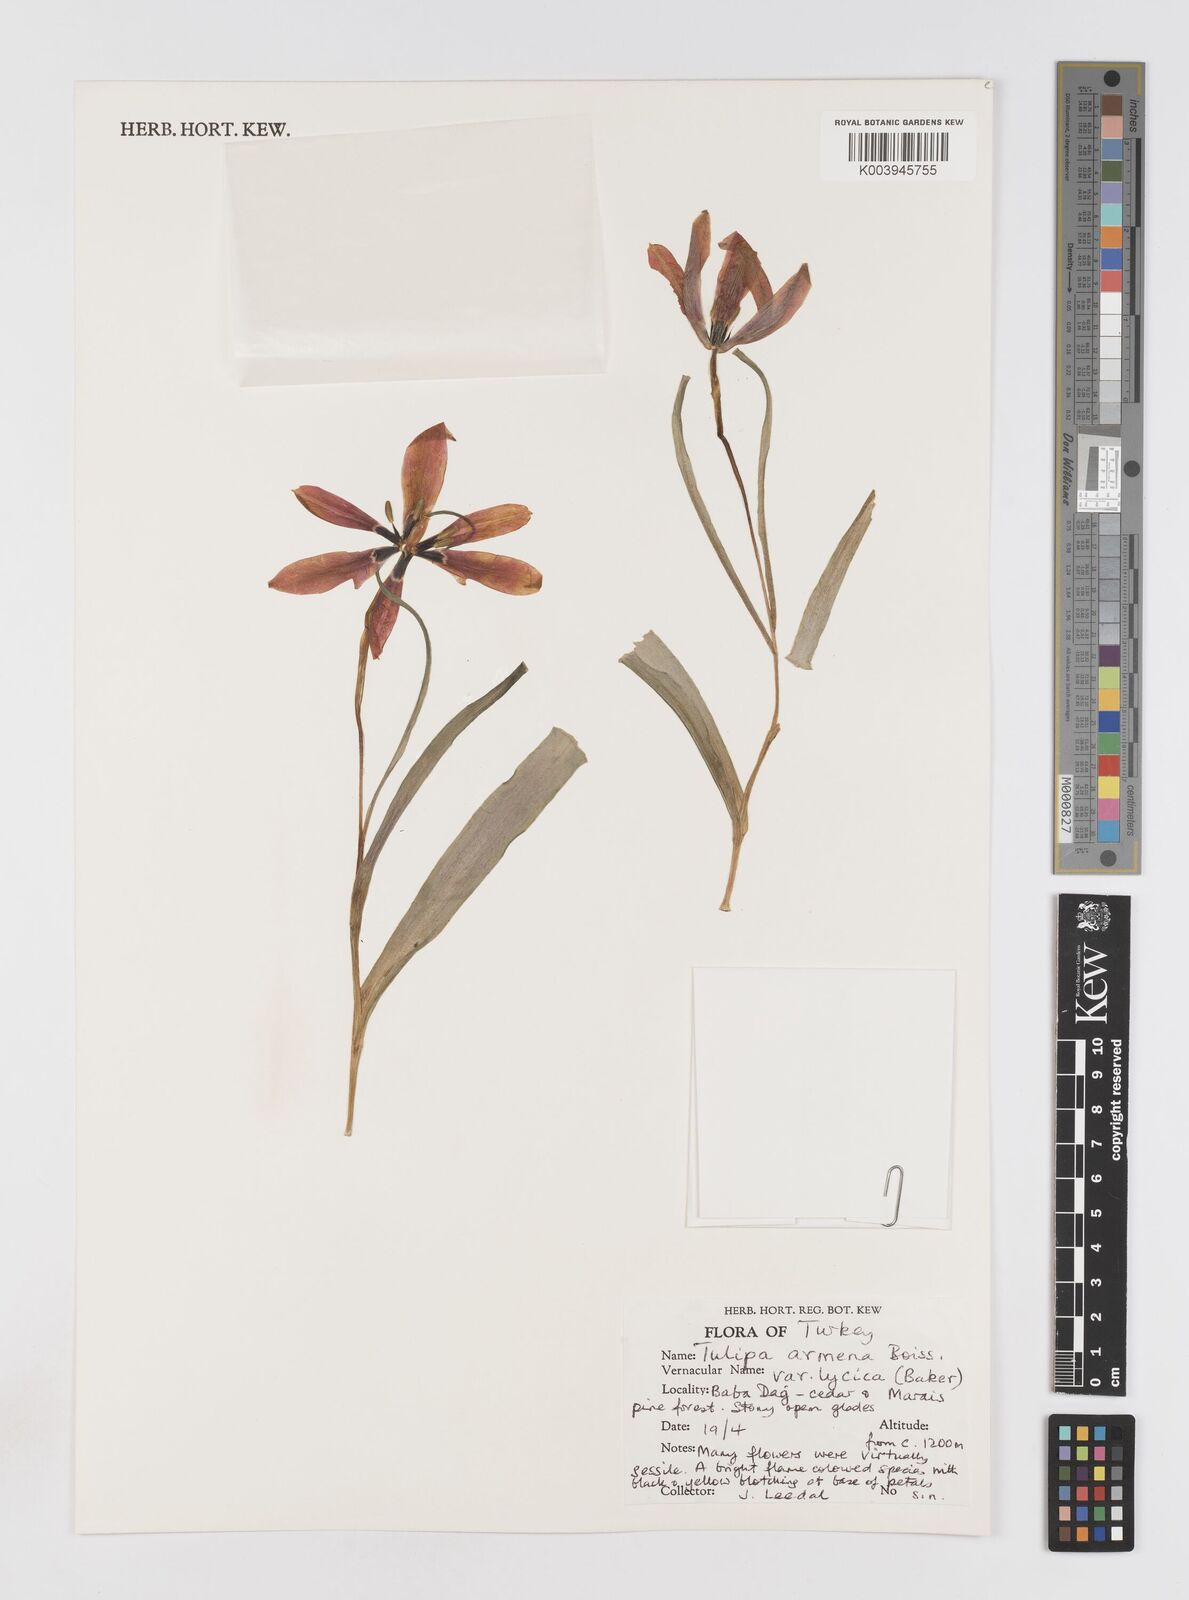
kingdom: Plantae
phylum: Tracheophyta
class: Liliopsida
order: Liliales
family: Liliaceae
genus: Tulipa
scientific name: Tulipa armena
